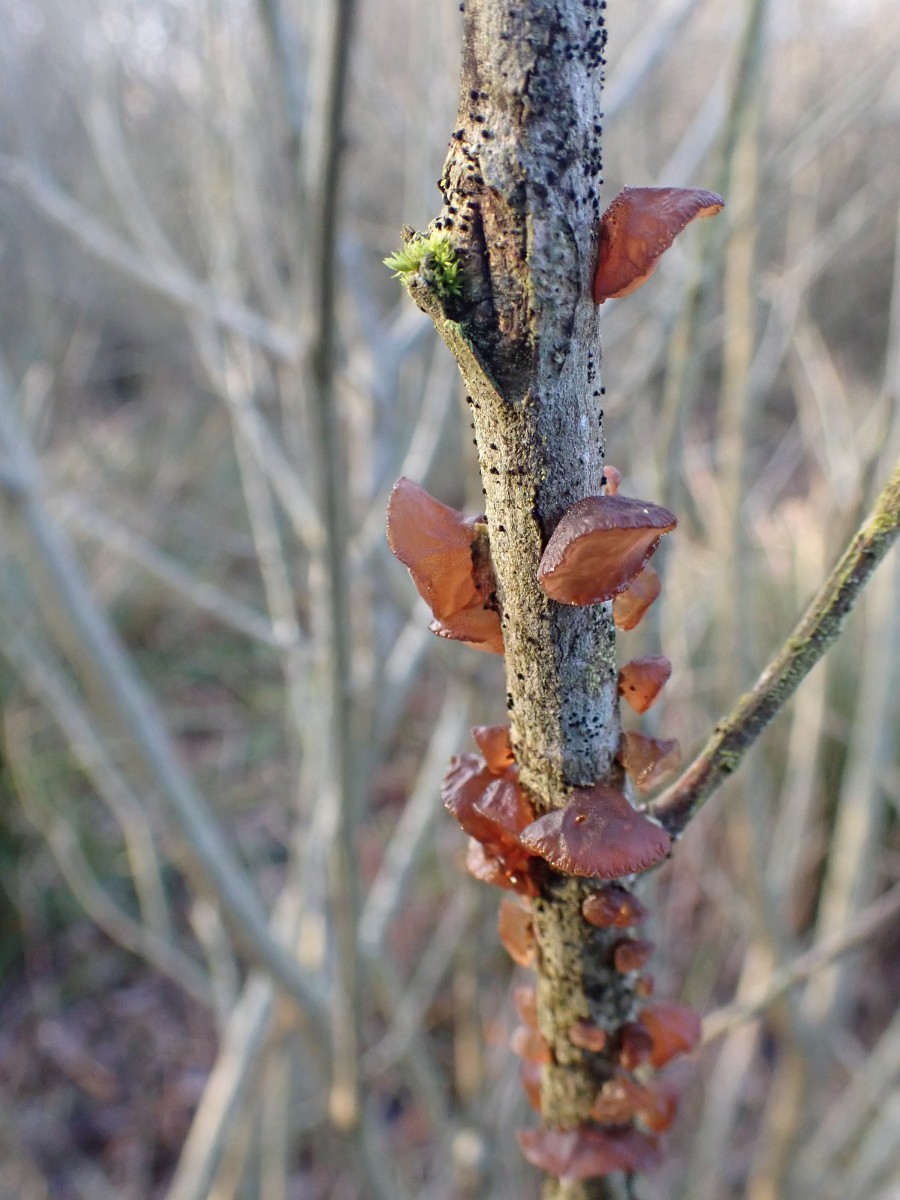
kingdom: Fungi
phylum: Basidiomycota
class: Agaricomycetes
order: Auriculariales
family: Auriculariaceae
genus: Exidia
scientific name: Exidia recisa
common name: pile-bævretop
